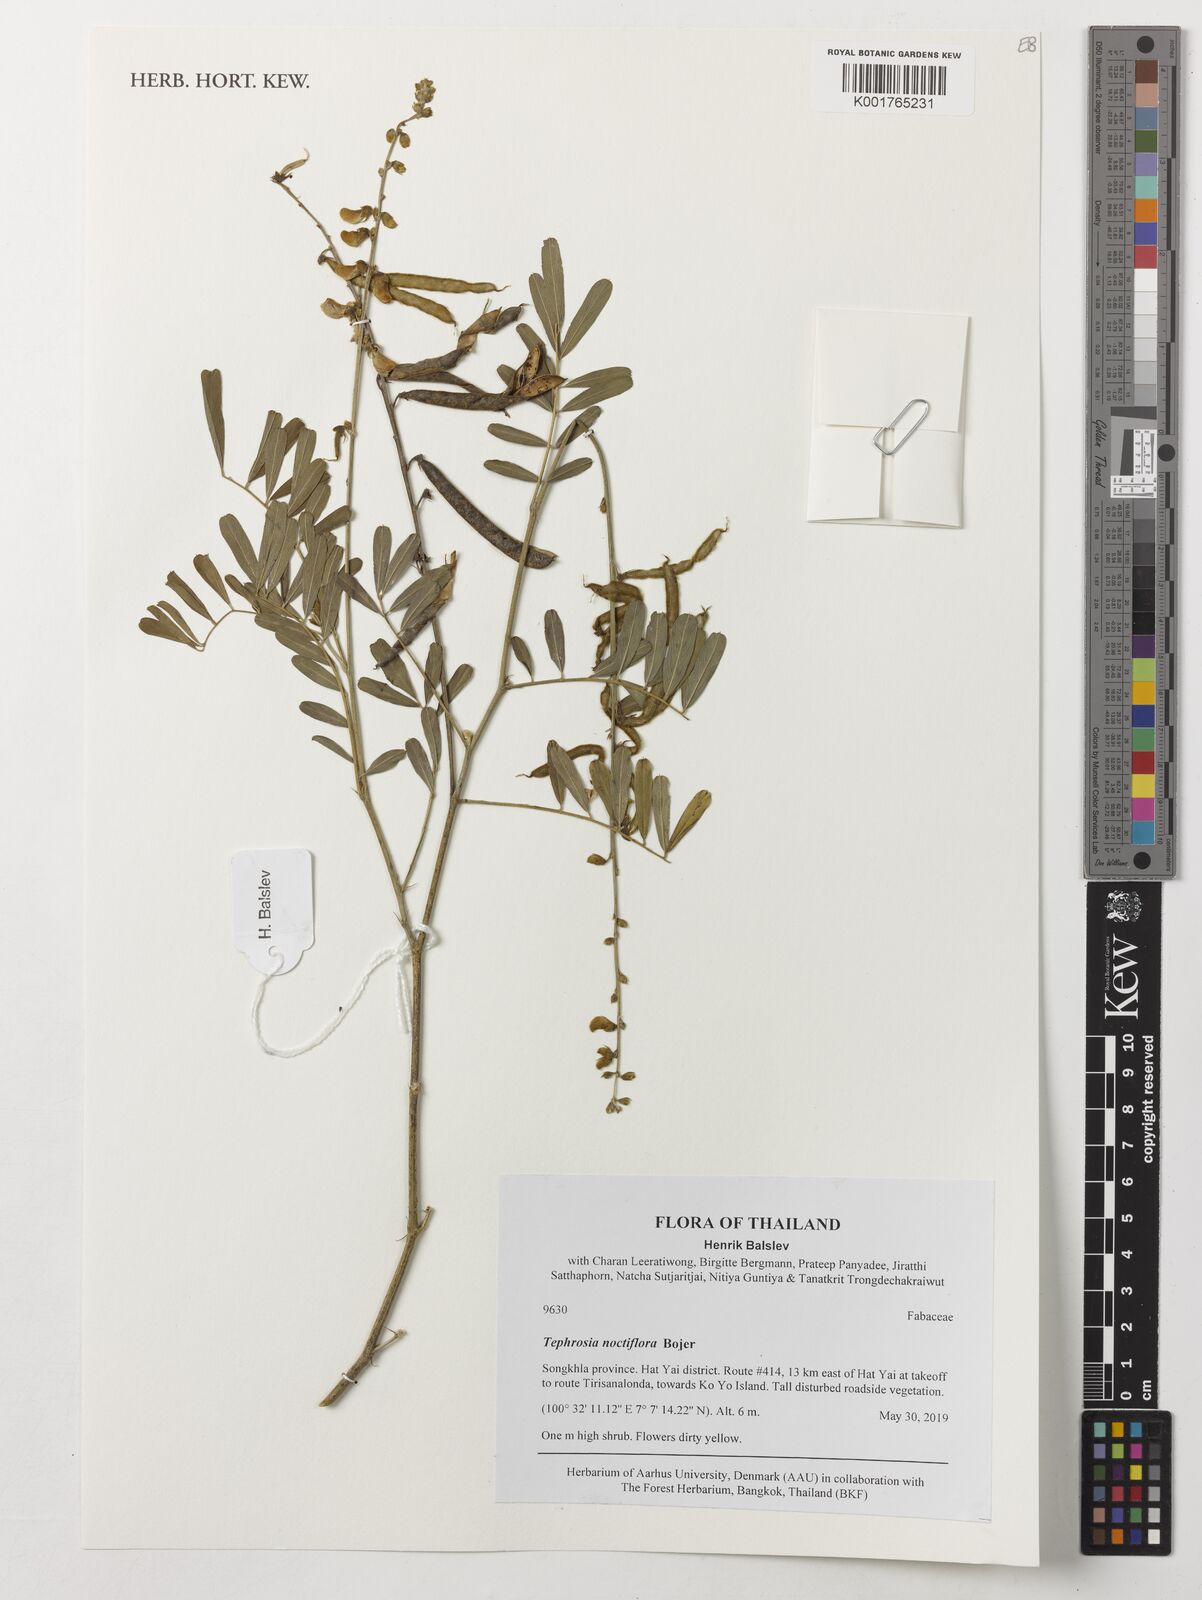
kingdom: Plantae
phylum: Tracheophyta
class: Magnoliopsida
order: Fabales
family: Fabaceae
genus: Tephrosia
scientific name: Tephrosia noctiflora
